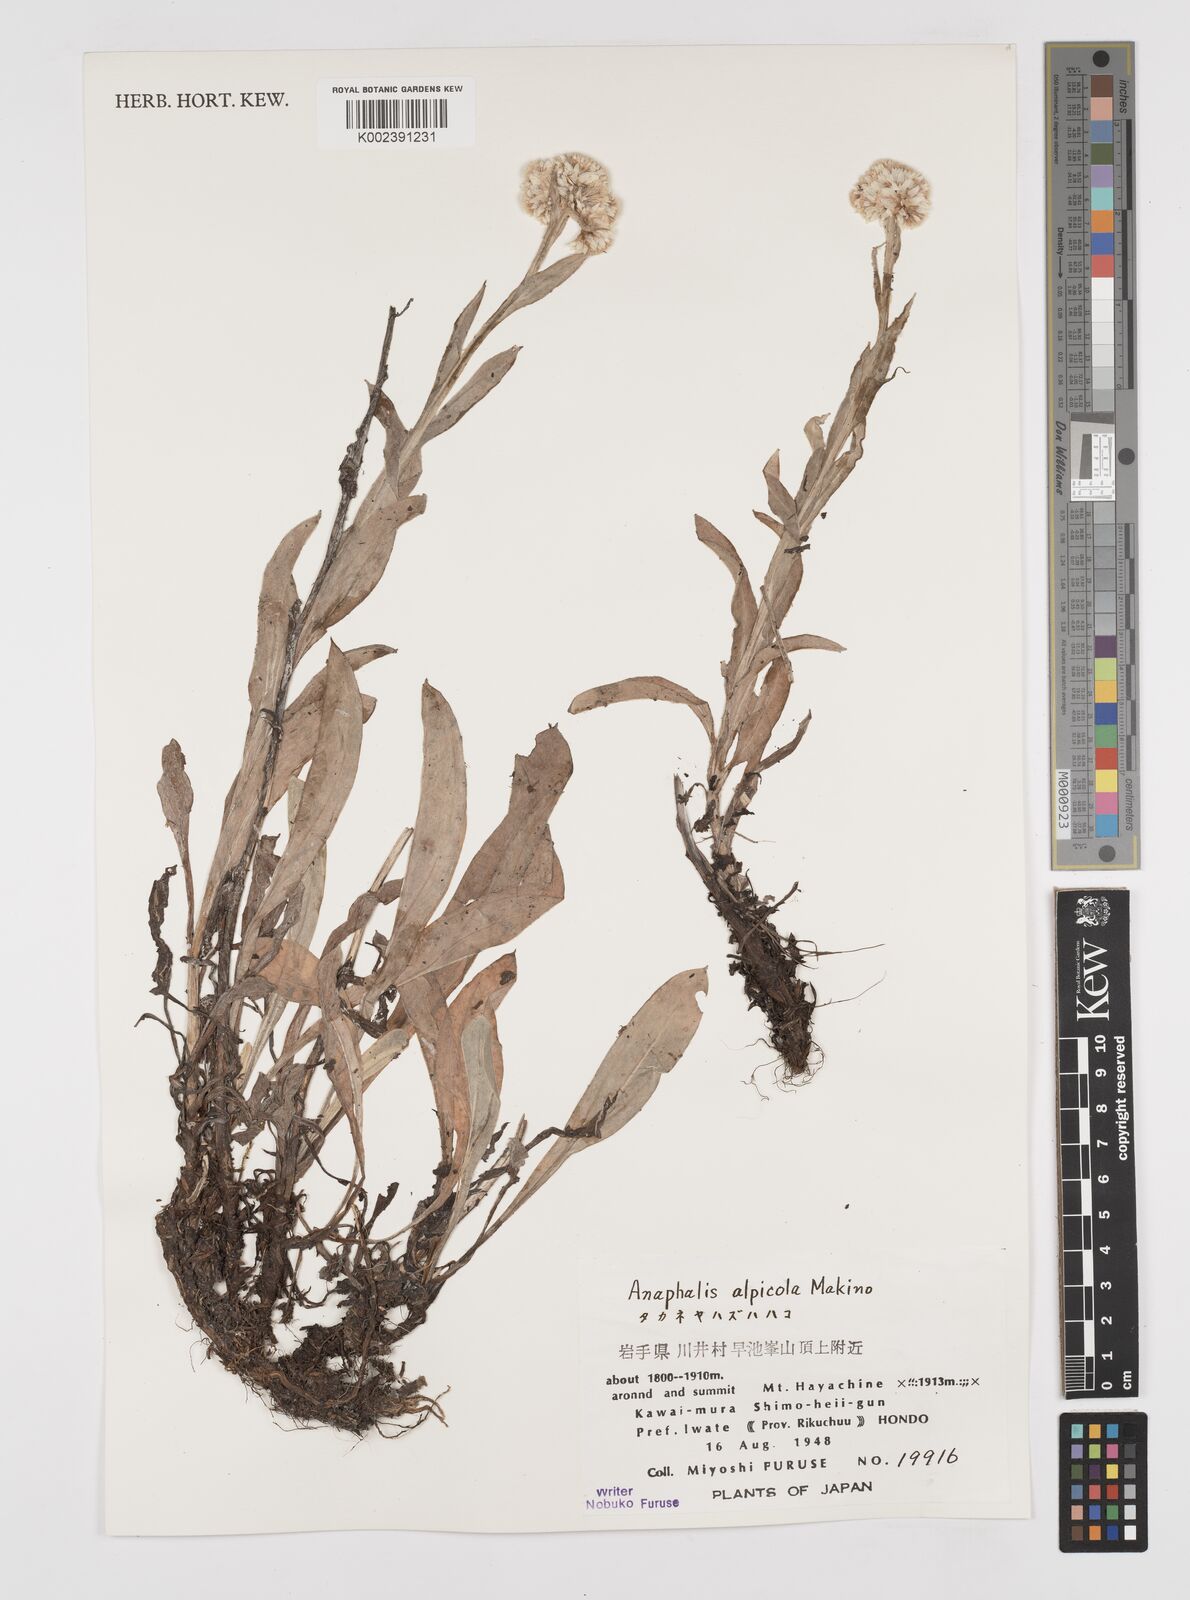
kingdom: Plantae
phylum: Tracheophyta
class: Magnoliopsida
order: Asterales
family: Asteraceae
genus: Anaphalis
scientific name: Anaphalis alpicola
